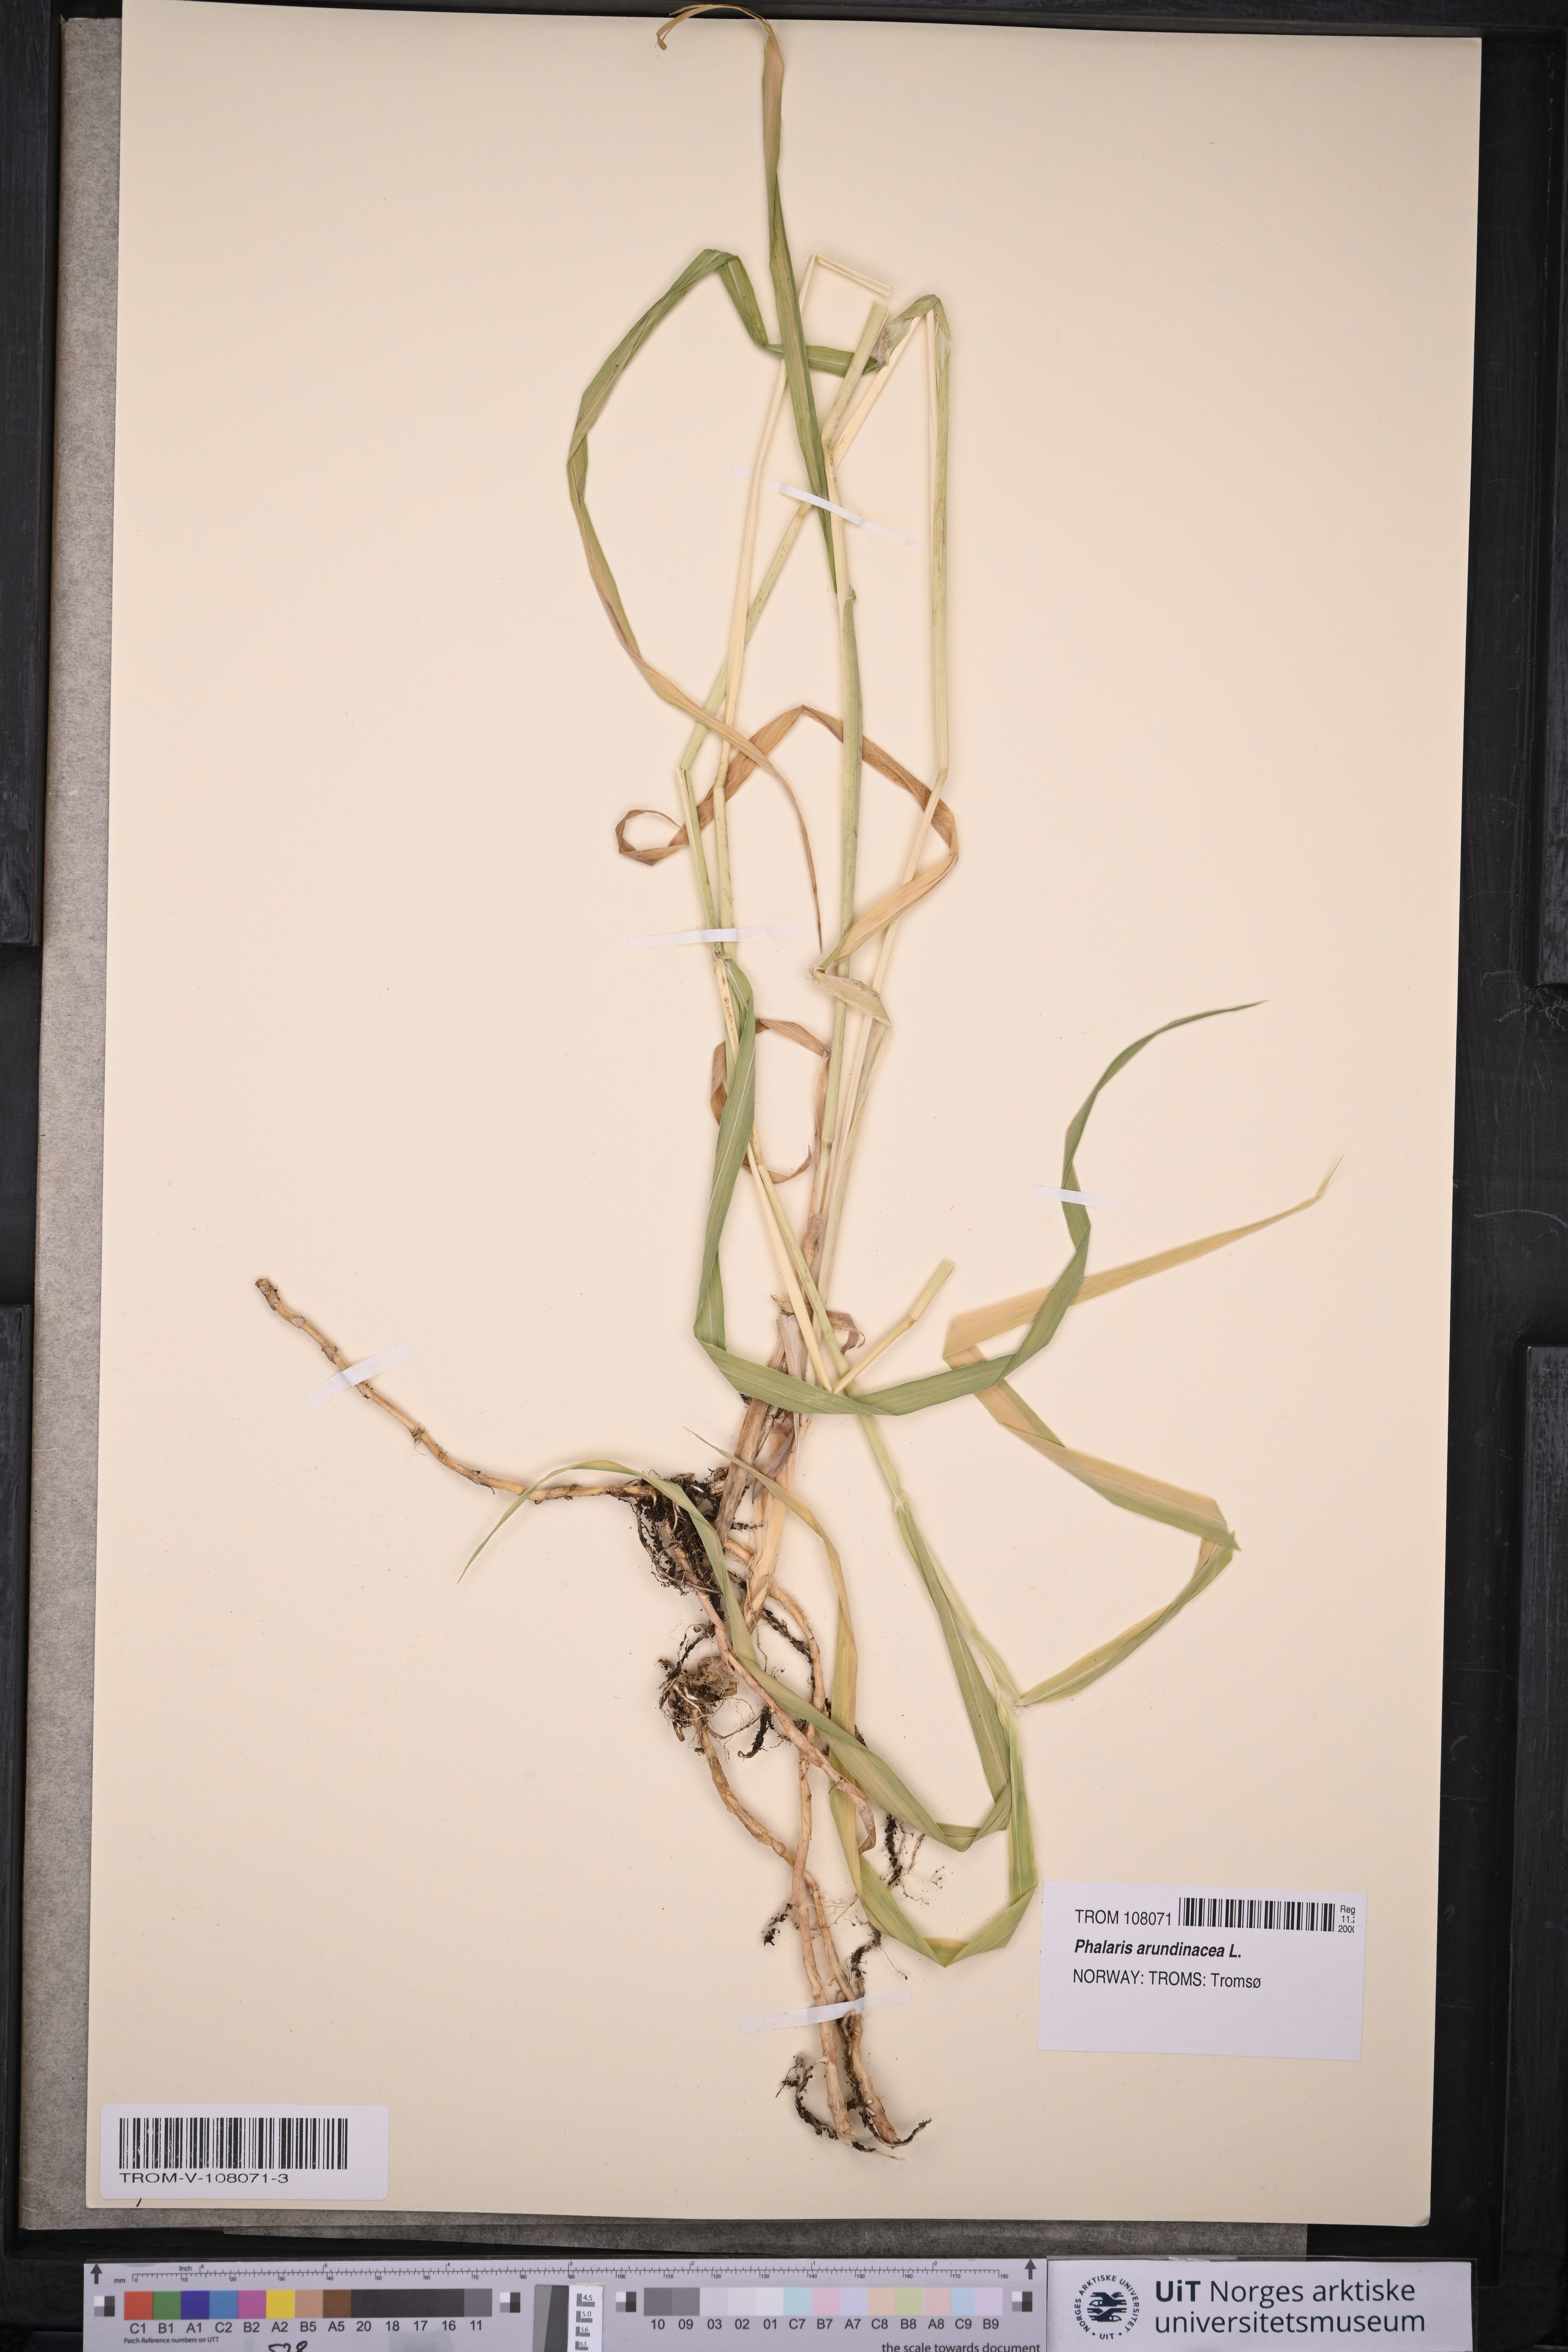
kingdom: Plantae
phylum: Tracheophyta
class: Liliopsida
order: Poales
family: Poaceae
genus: Phalaris
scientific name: Phalaris arundinacea
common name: Reed canary-grass
